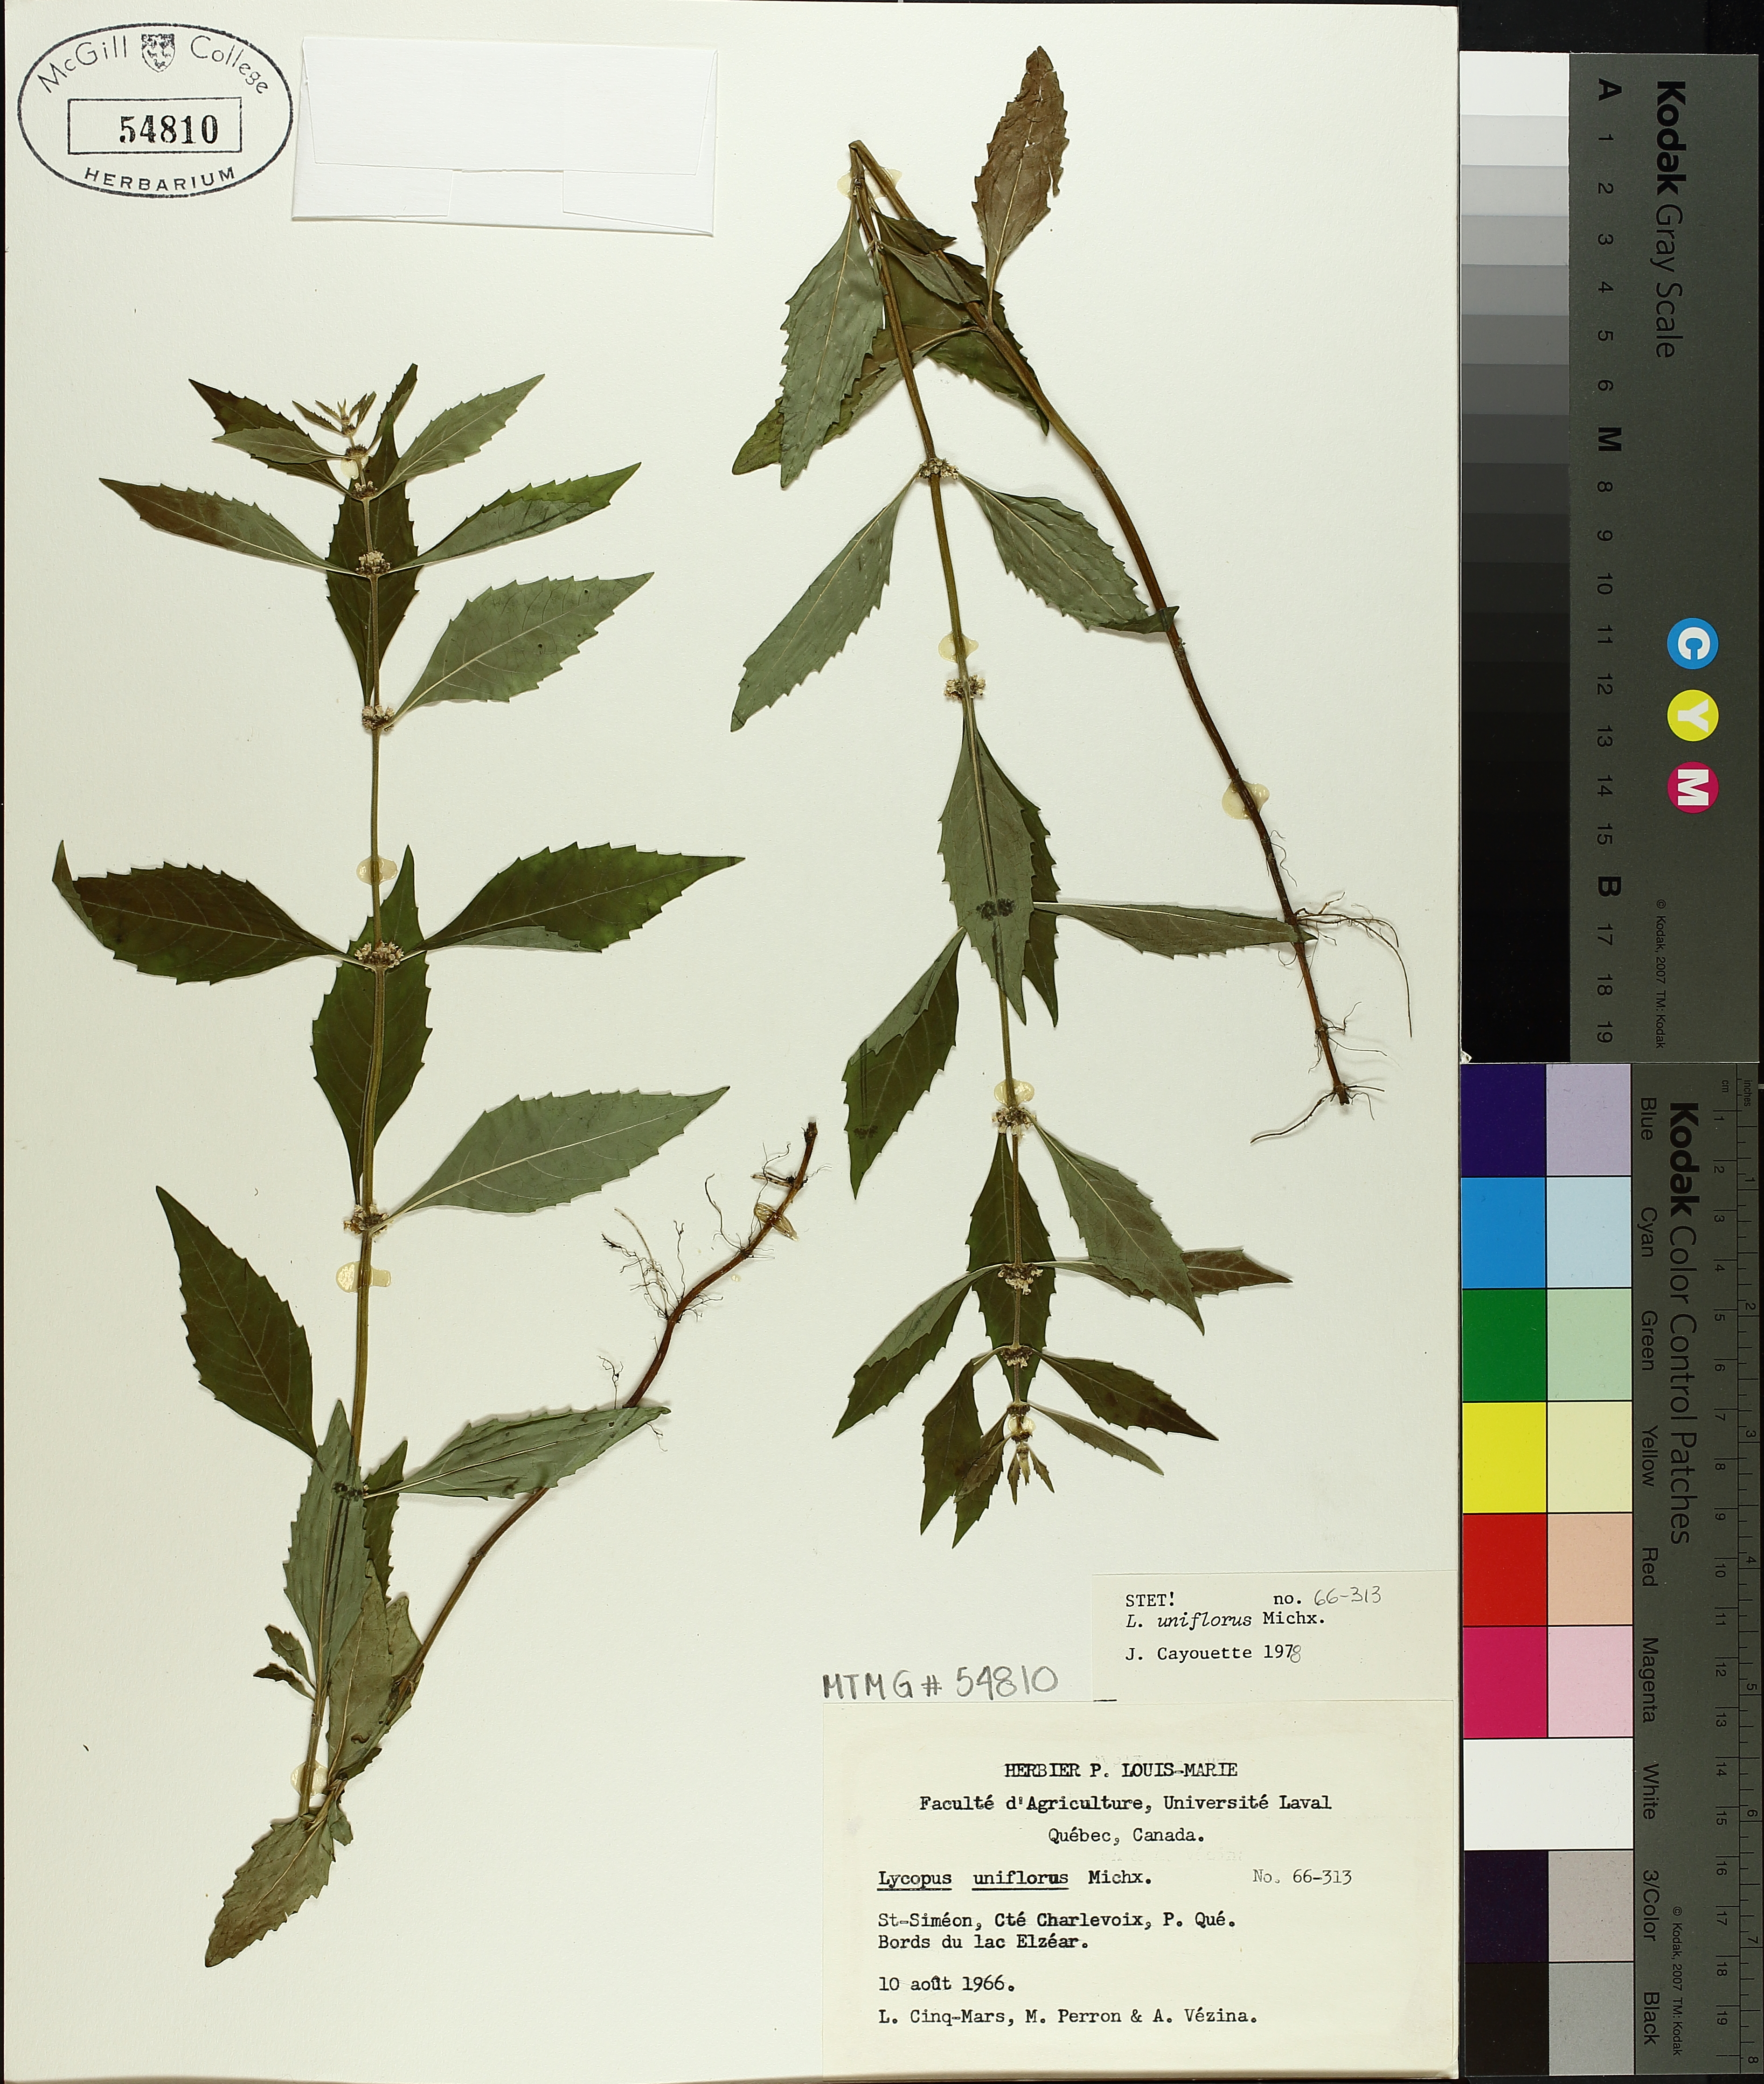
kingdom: Plantae
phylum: Tracheophyta
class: Magnoliopsida
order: Lamiales
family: Lamiaceae
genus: Lycopus
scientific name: Lycopus uniflorus
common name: Northern bugleweed
